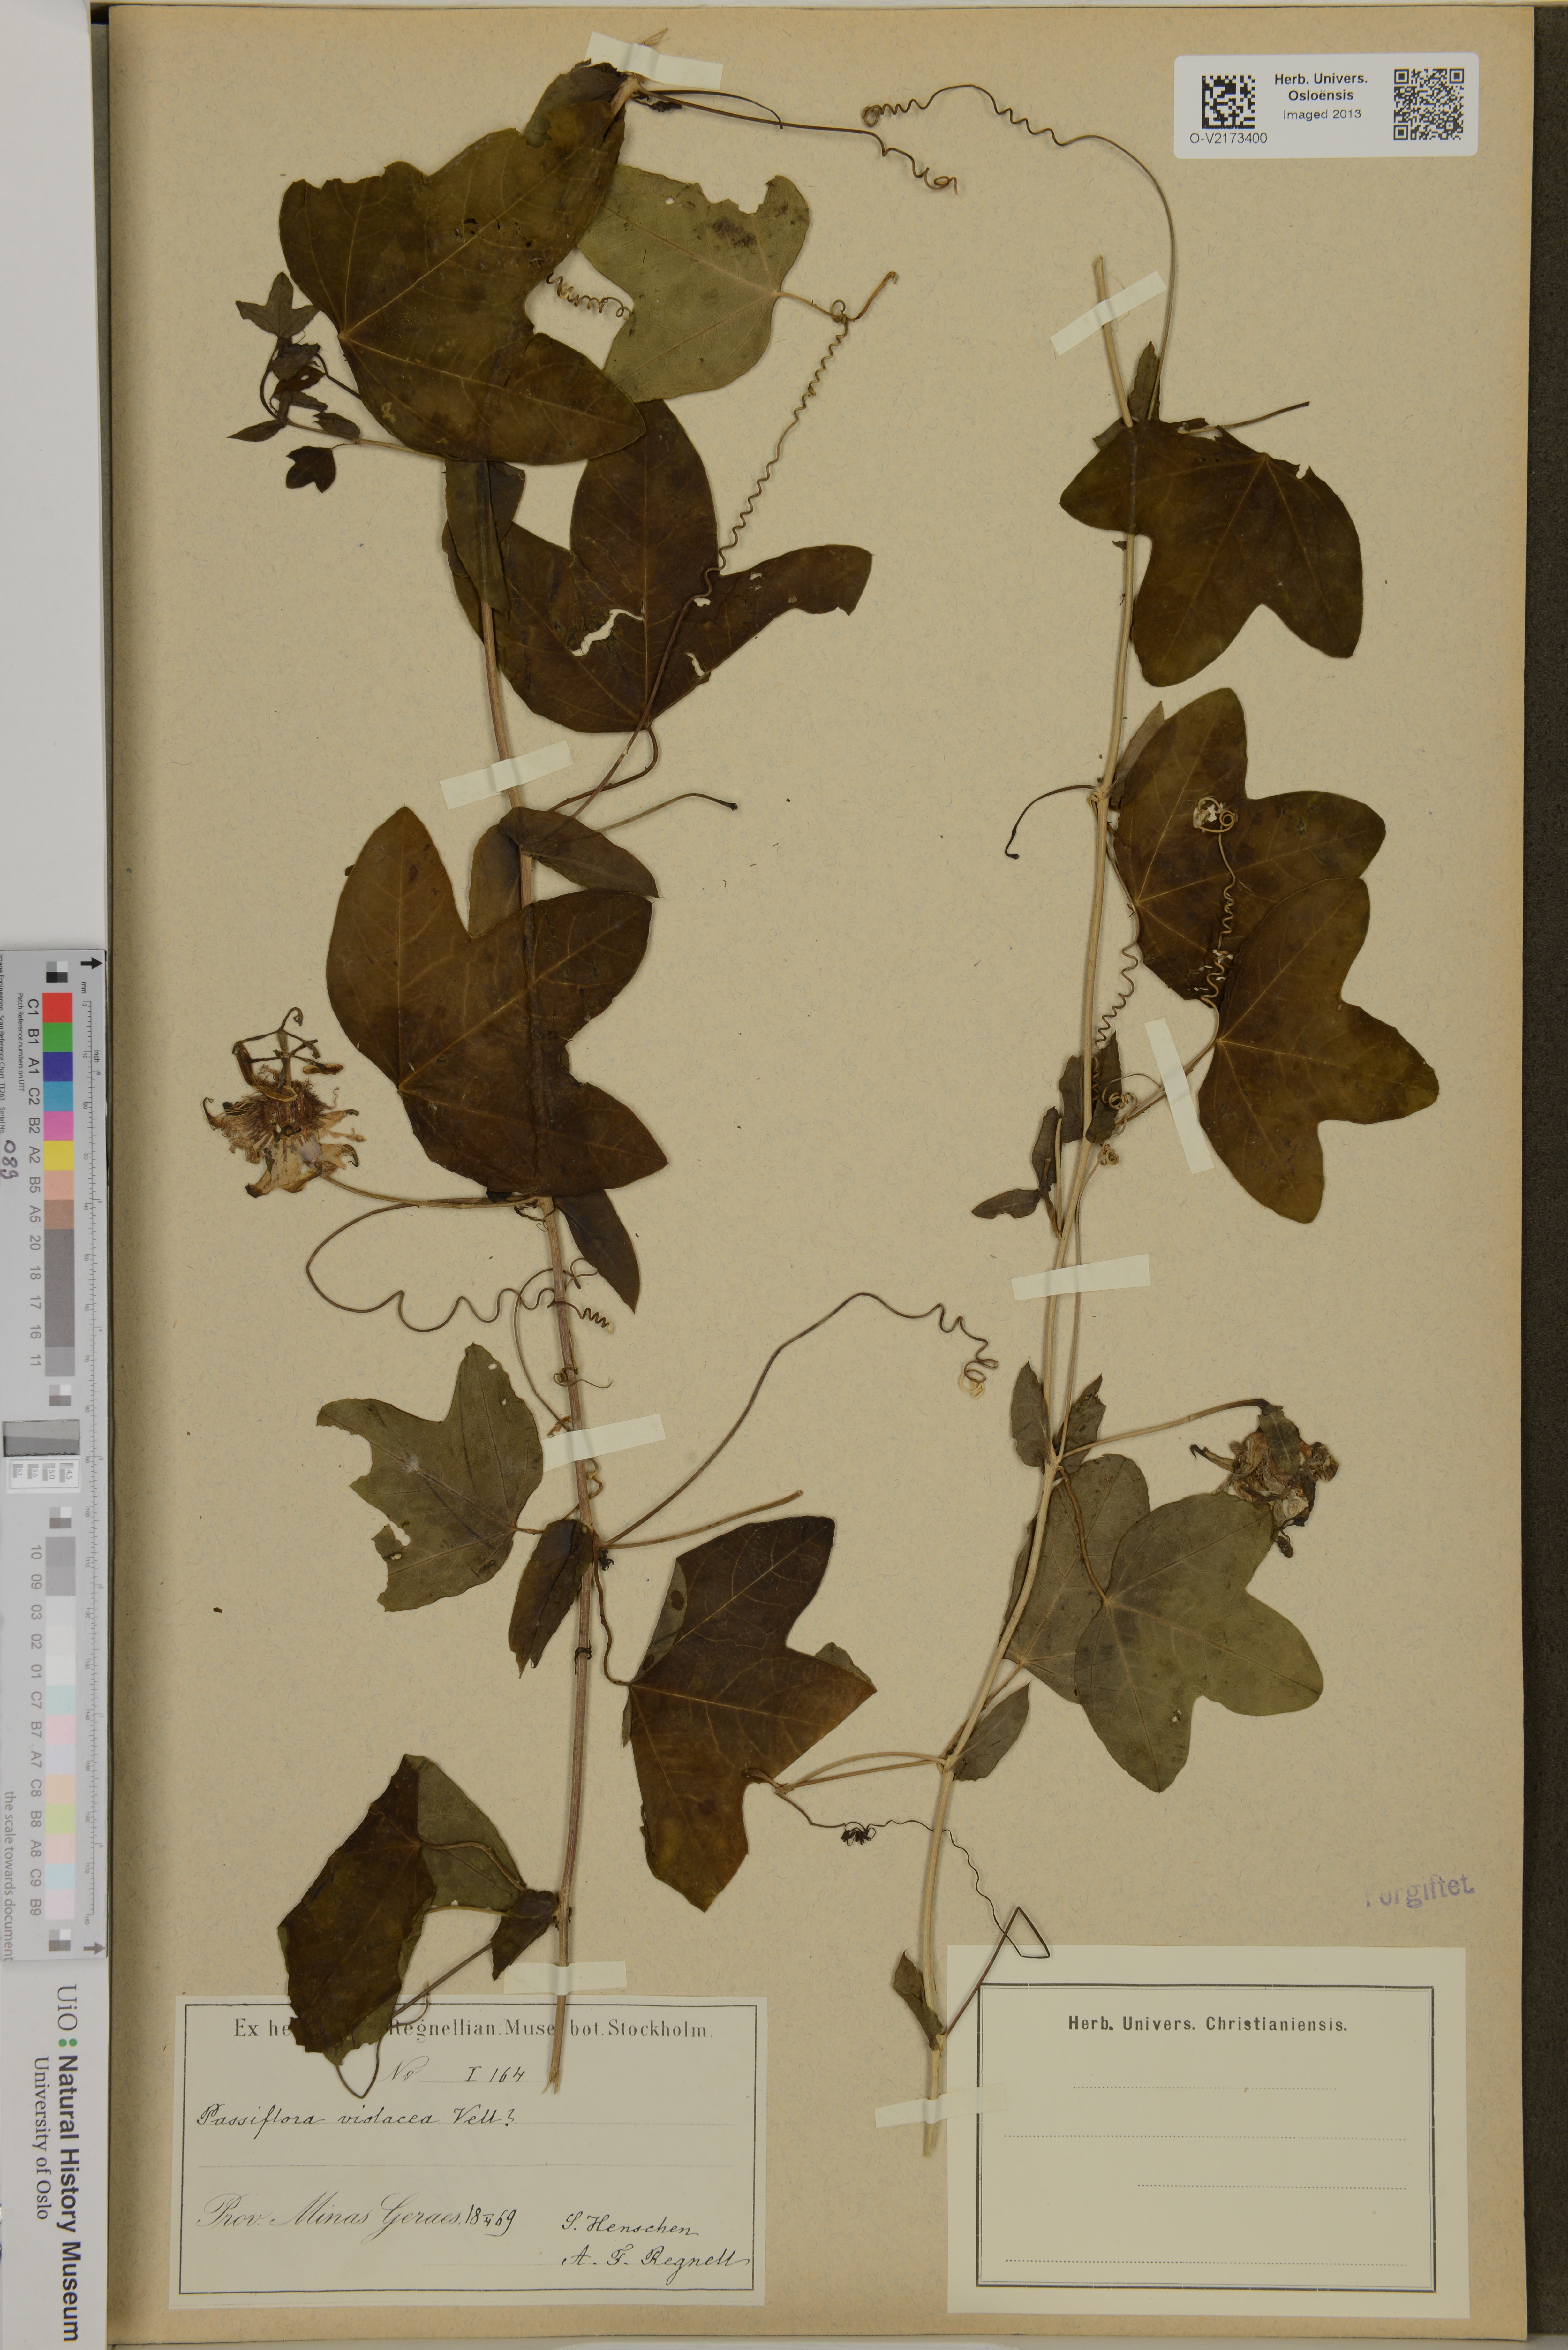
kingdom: Plantae
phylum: Tracheophyta
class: Magnoliopsida
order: Malpighiales
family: Passifloraceae
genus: Passiflora
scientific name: Passiflora violacea
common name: Violet passionflower
